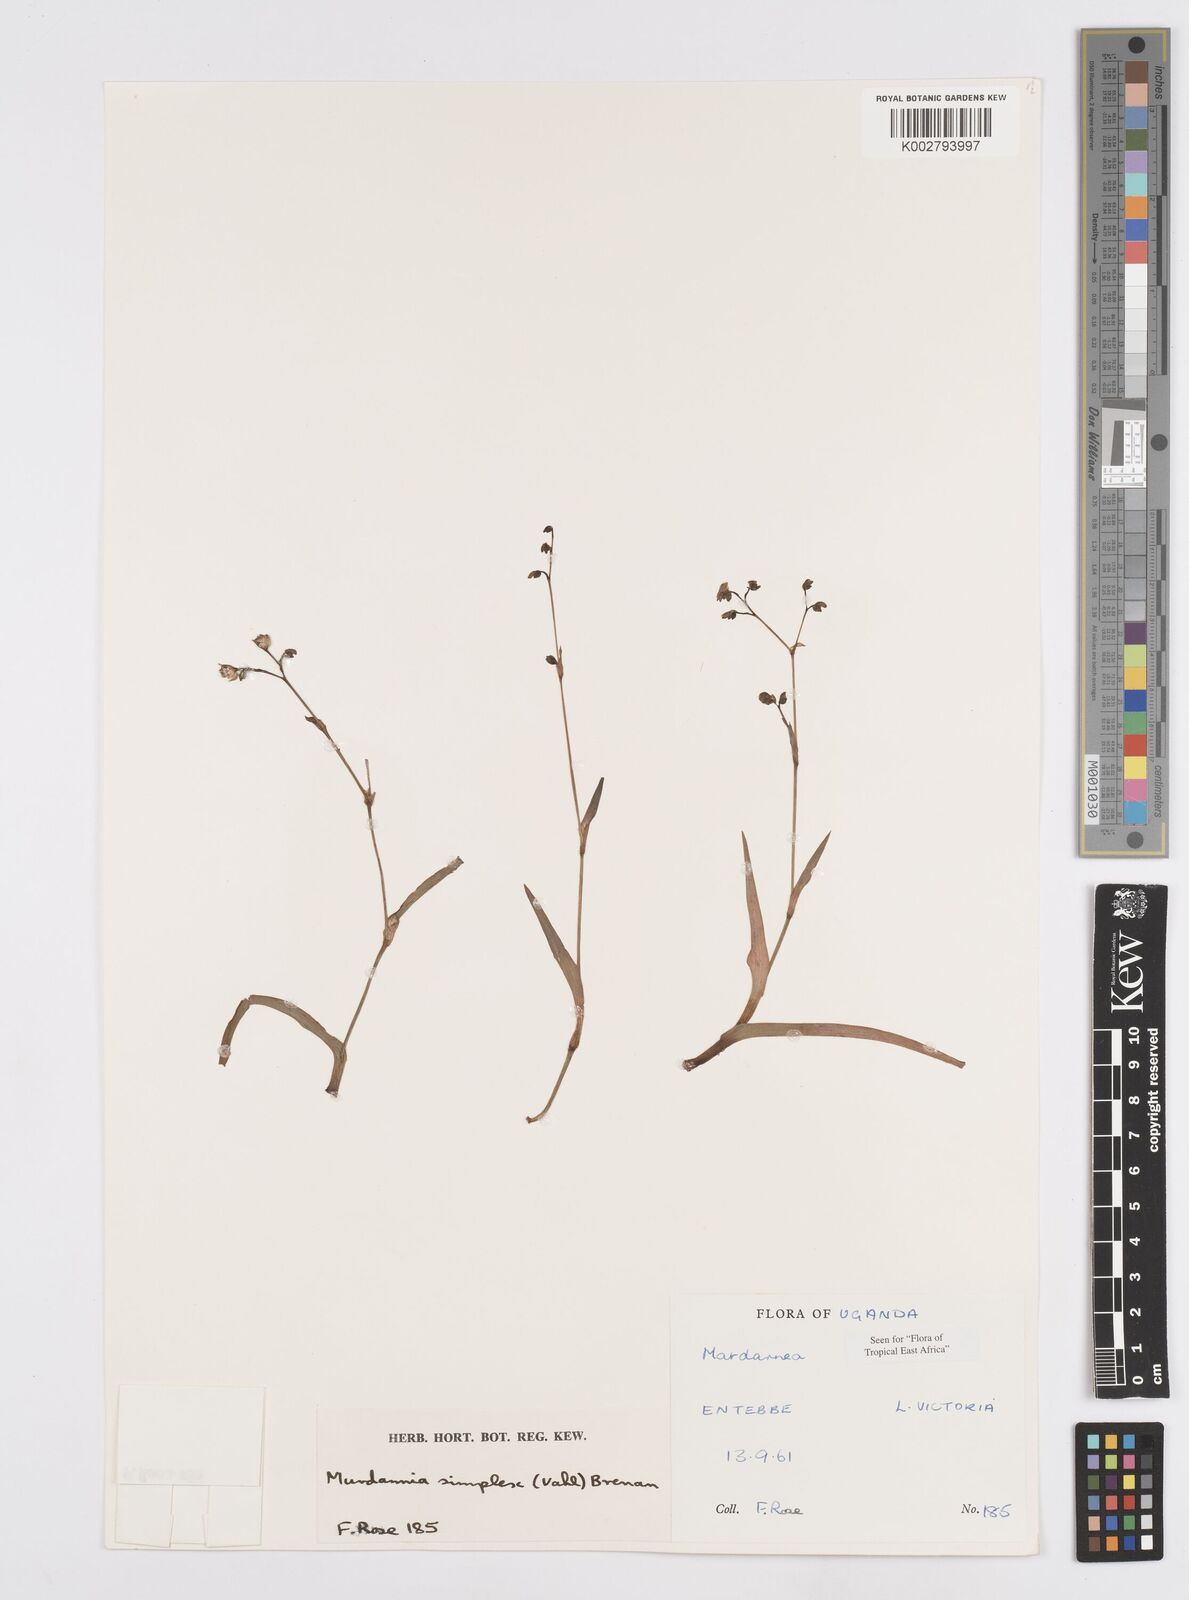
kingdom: Plantae
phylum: Tracheophyta
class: Liliopsida
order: Commelinales
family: Commelinaceae
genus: Murdannia
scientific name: Murdannia simplex
